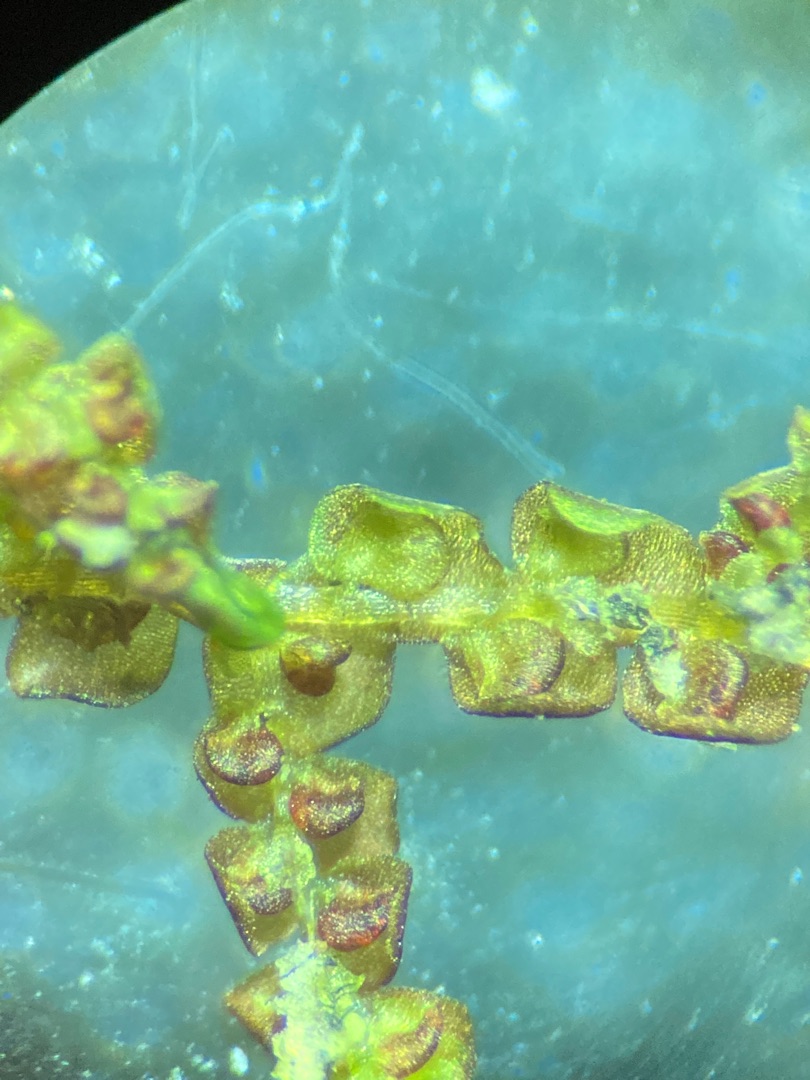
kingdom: Plantae
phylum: Marchantiophyta
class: Jungermanniopsida
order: Porellales
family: Frullaniaceae
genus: Frullania
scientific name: Frullania dilatata
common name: Mat bronzemos
